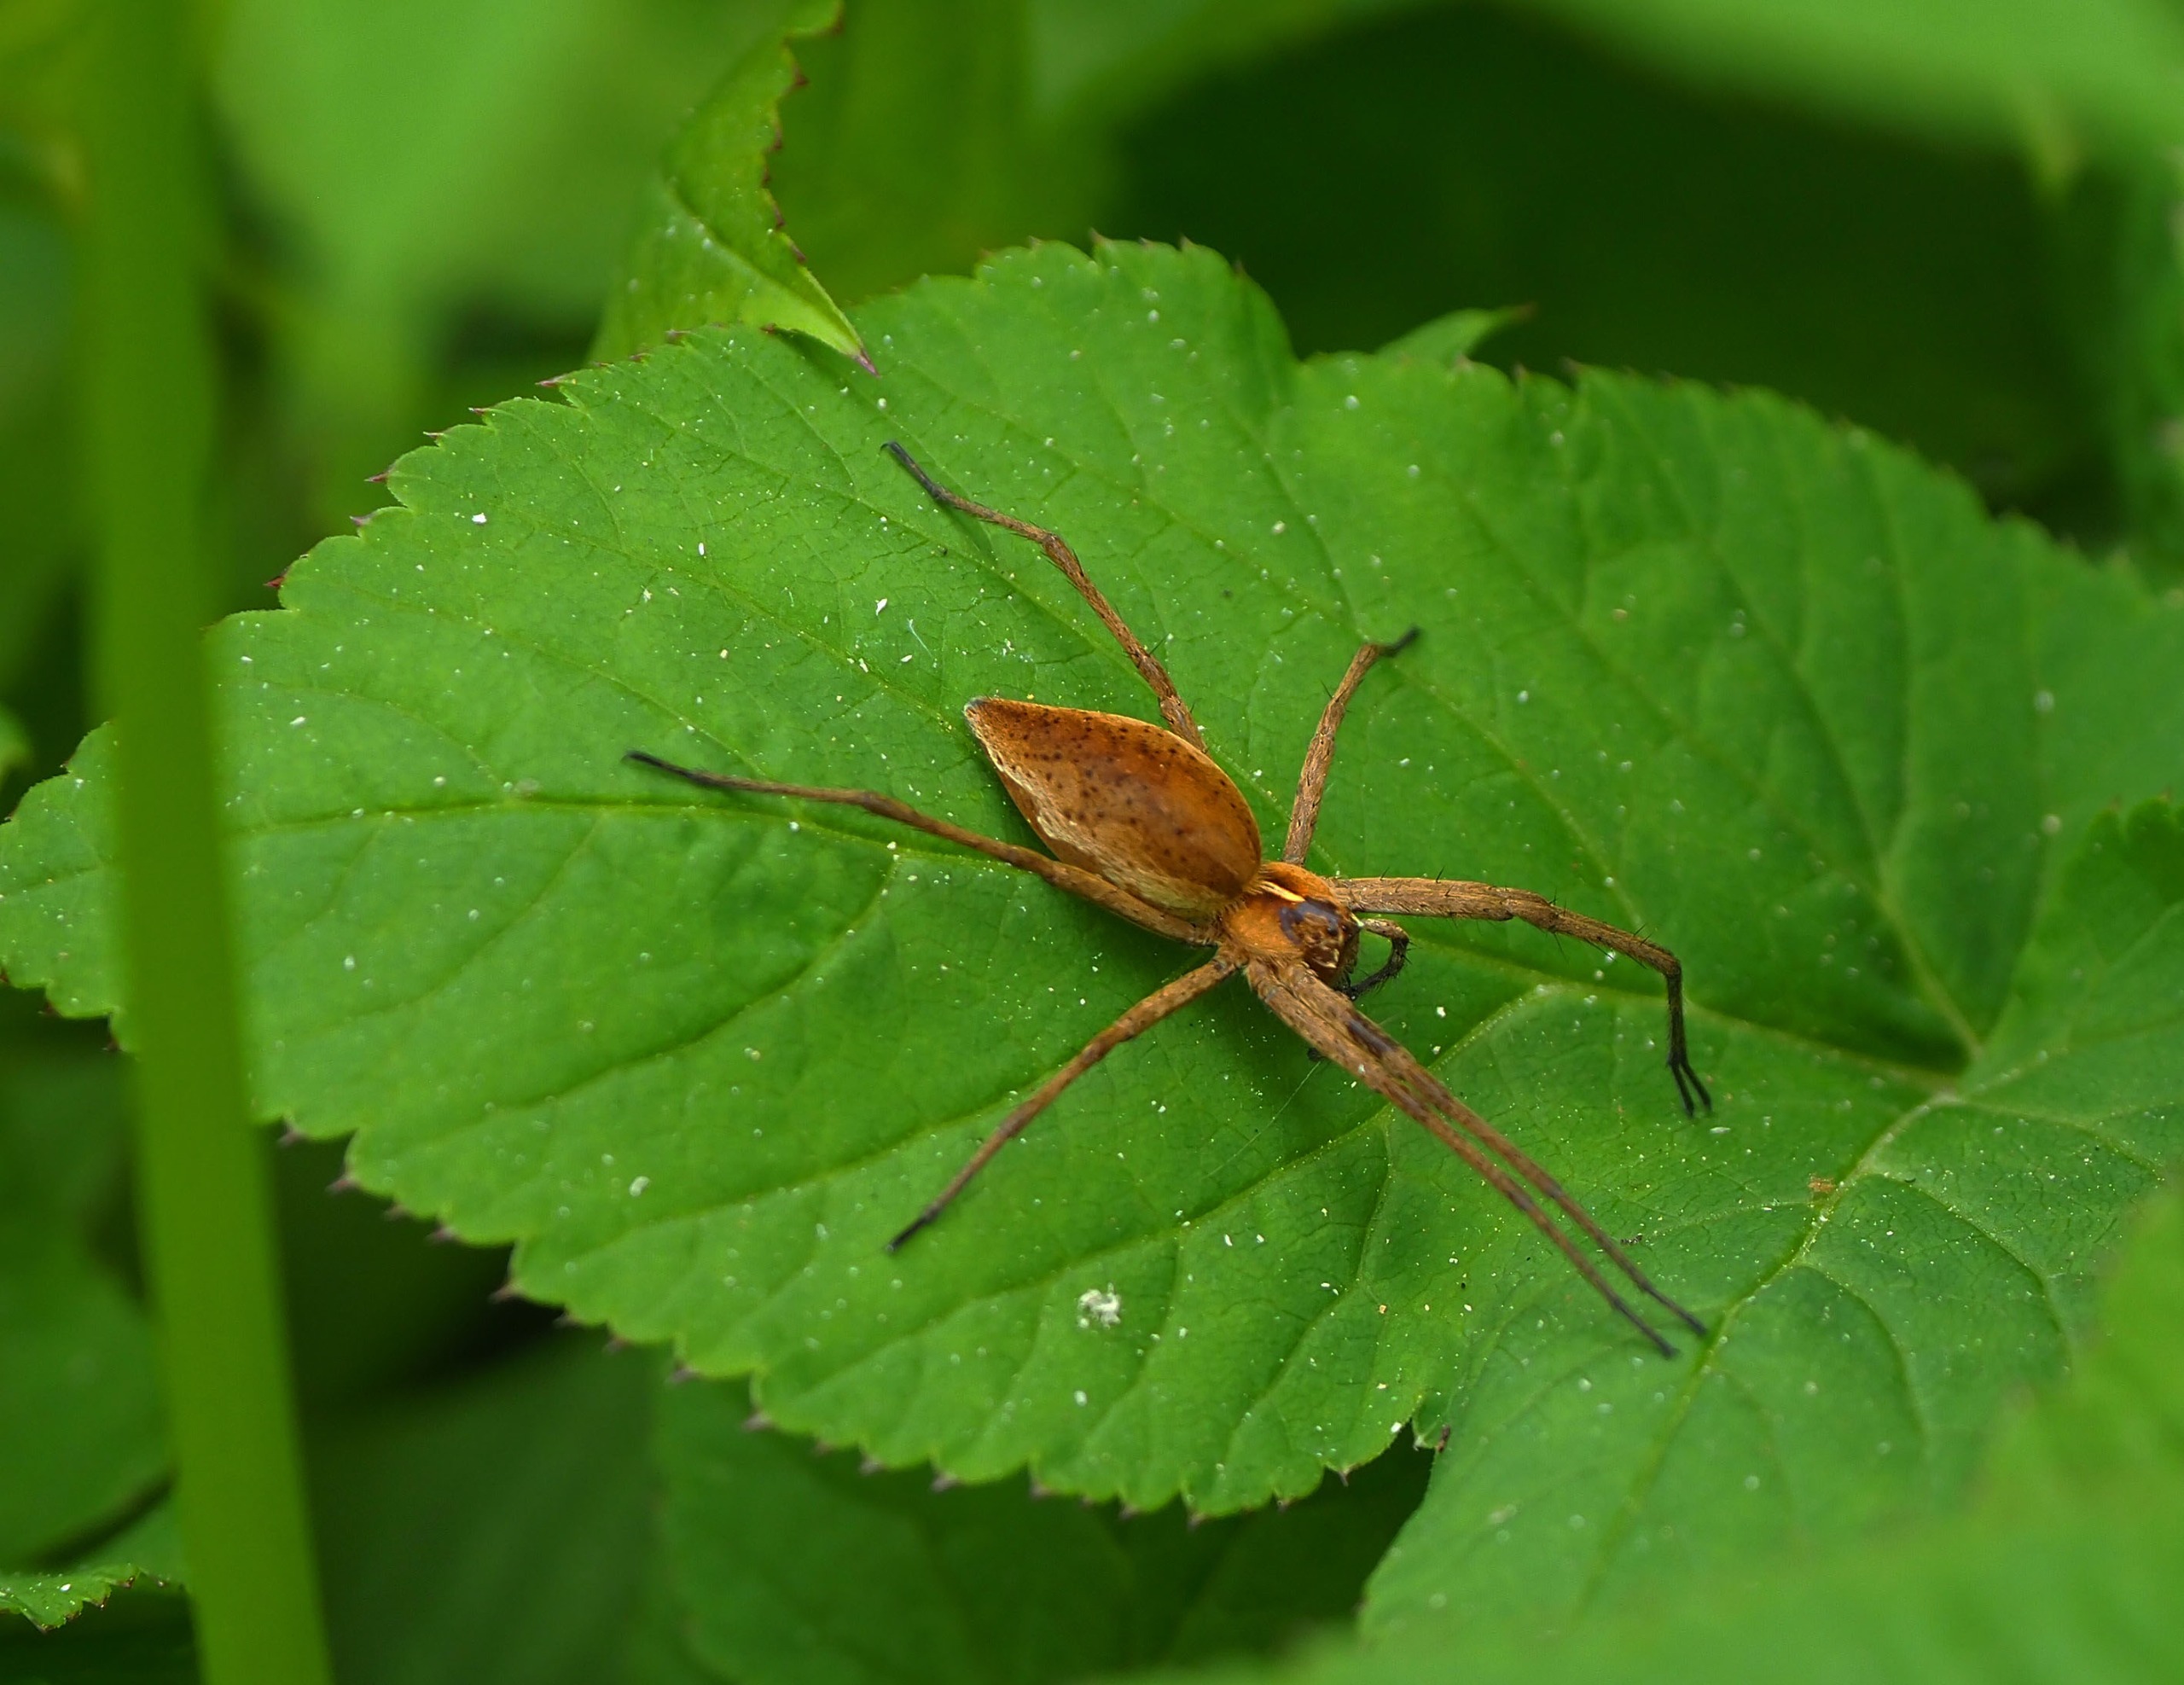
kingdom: Animalia
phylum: Arthropoda
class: Arachnida
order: Araneae
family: Pisauridae
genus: Pisaura
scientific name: Pisaura mirabilis
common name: Almindelig rovedderkop
